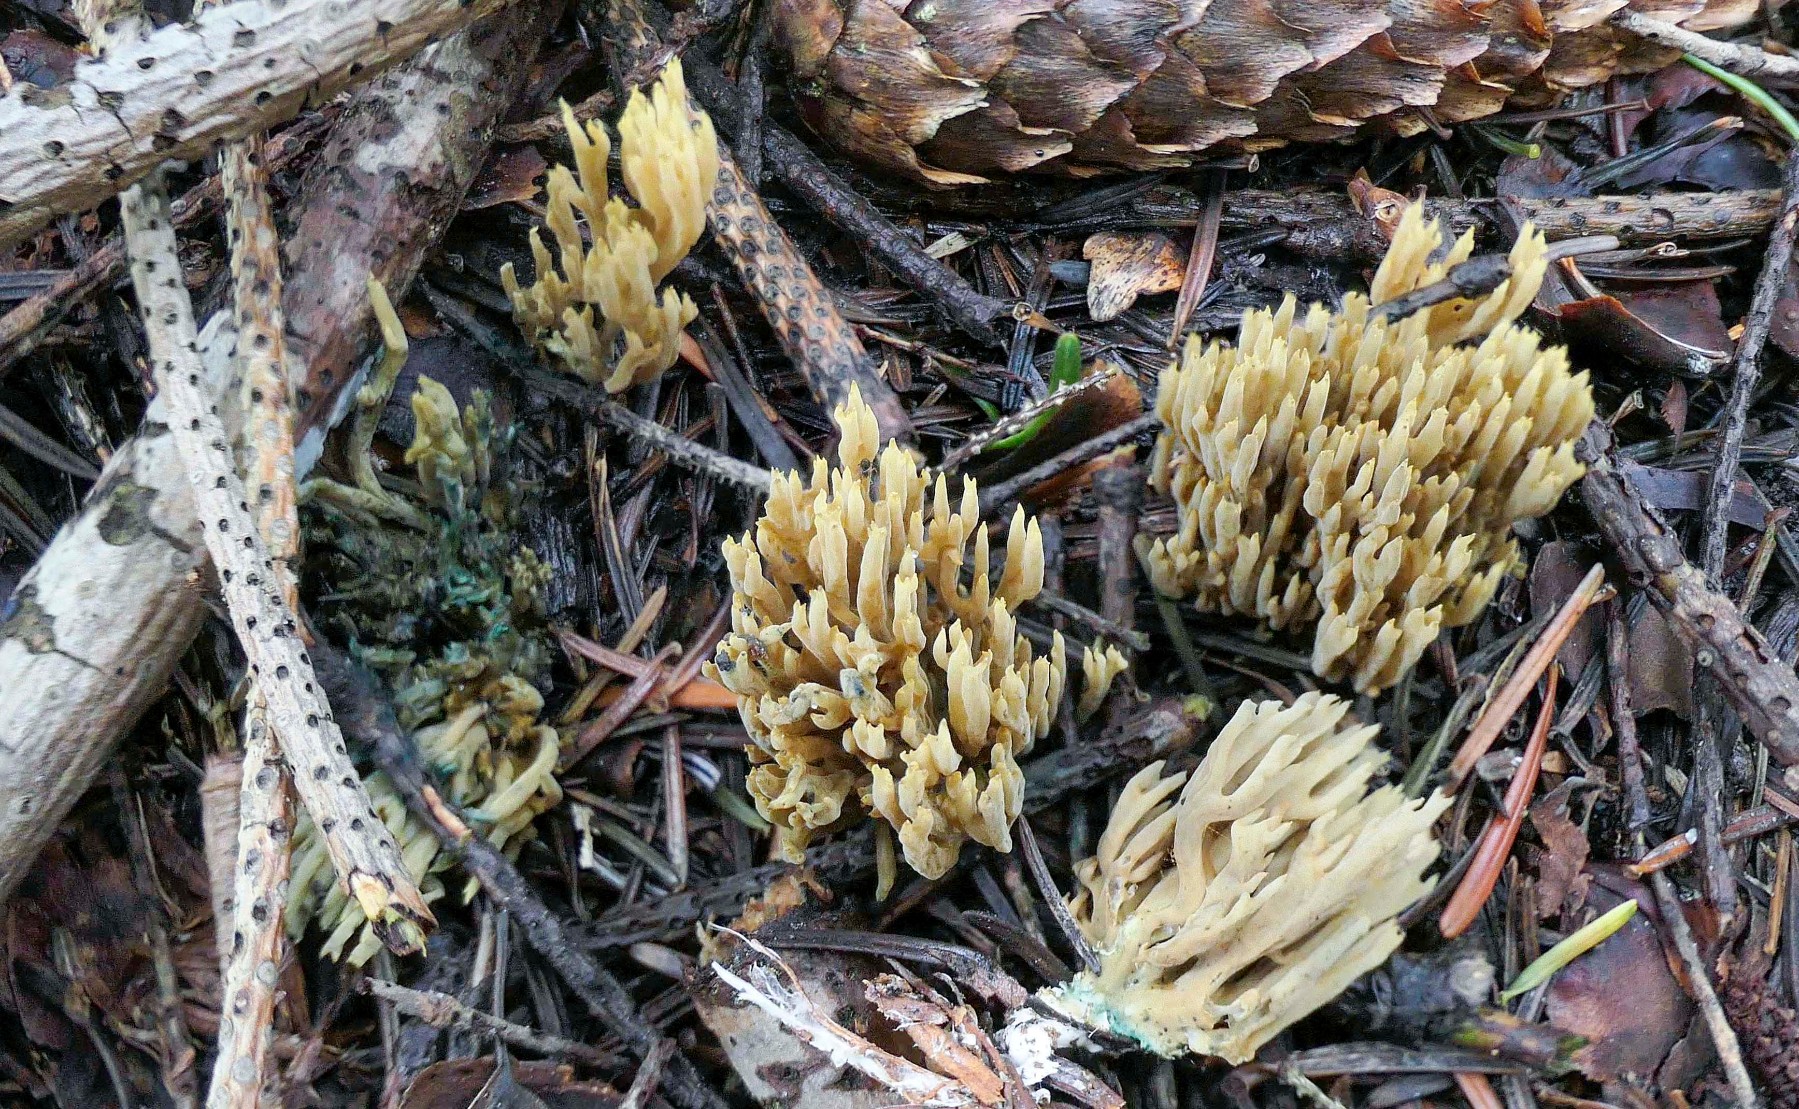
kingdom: Fungi
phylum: Basidiomycota
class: Agaricomycetes
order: Gomphales
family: Gomphaceae
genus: Phaeoclavulina
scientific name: Phaeoclavulina abietina
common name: gulgrøn koralsvamp
